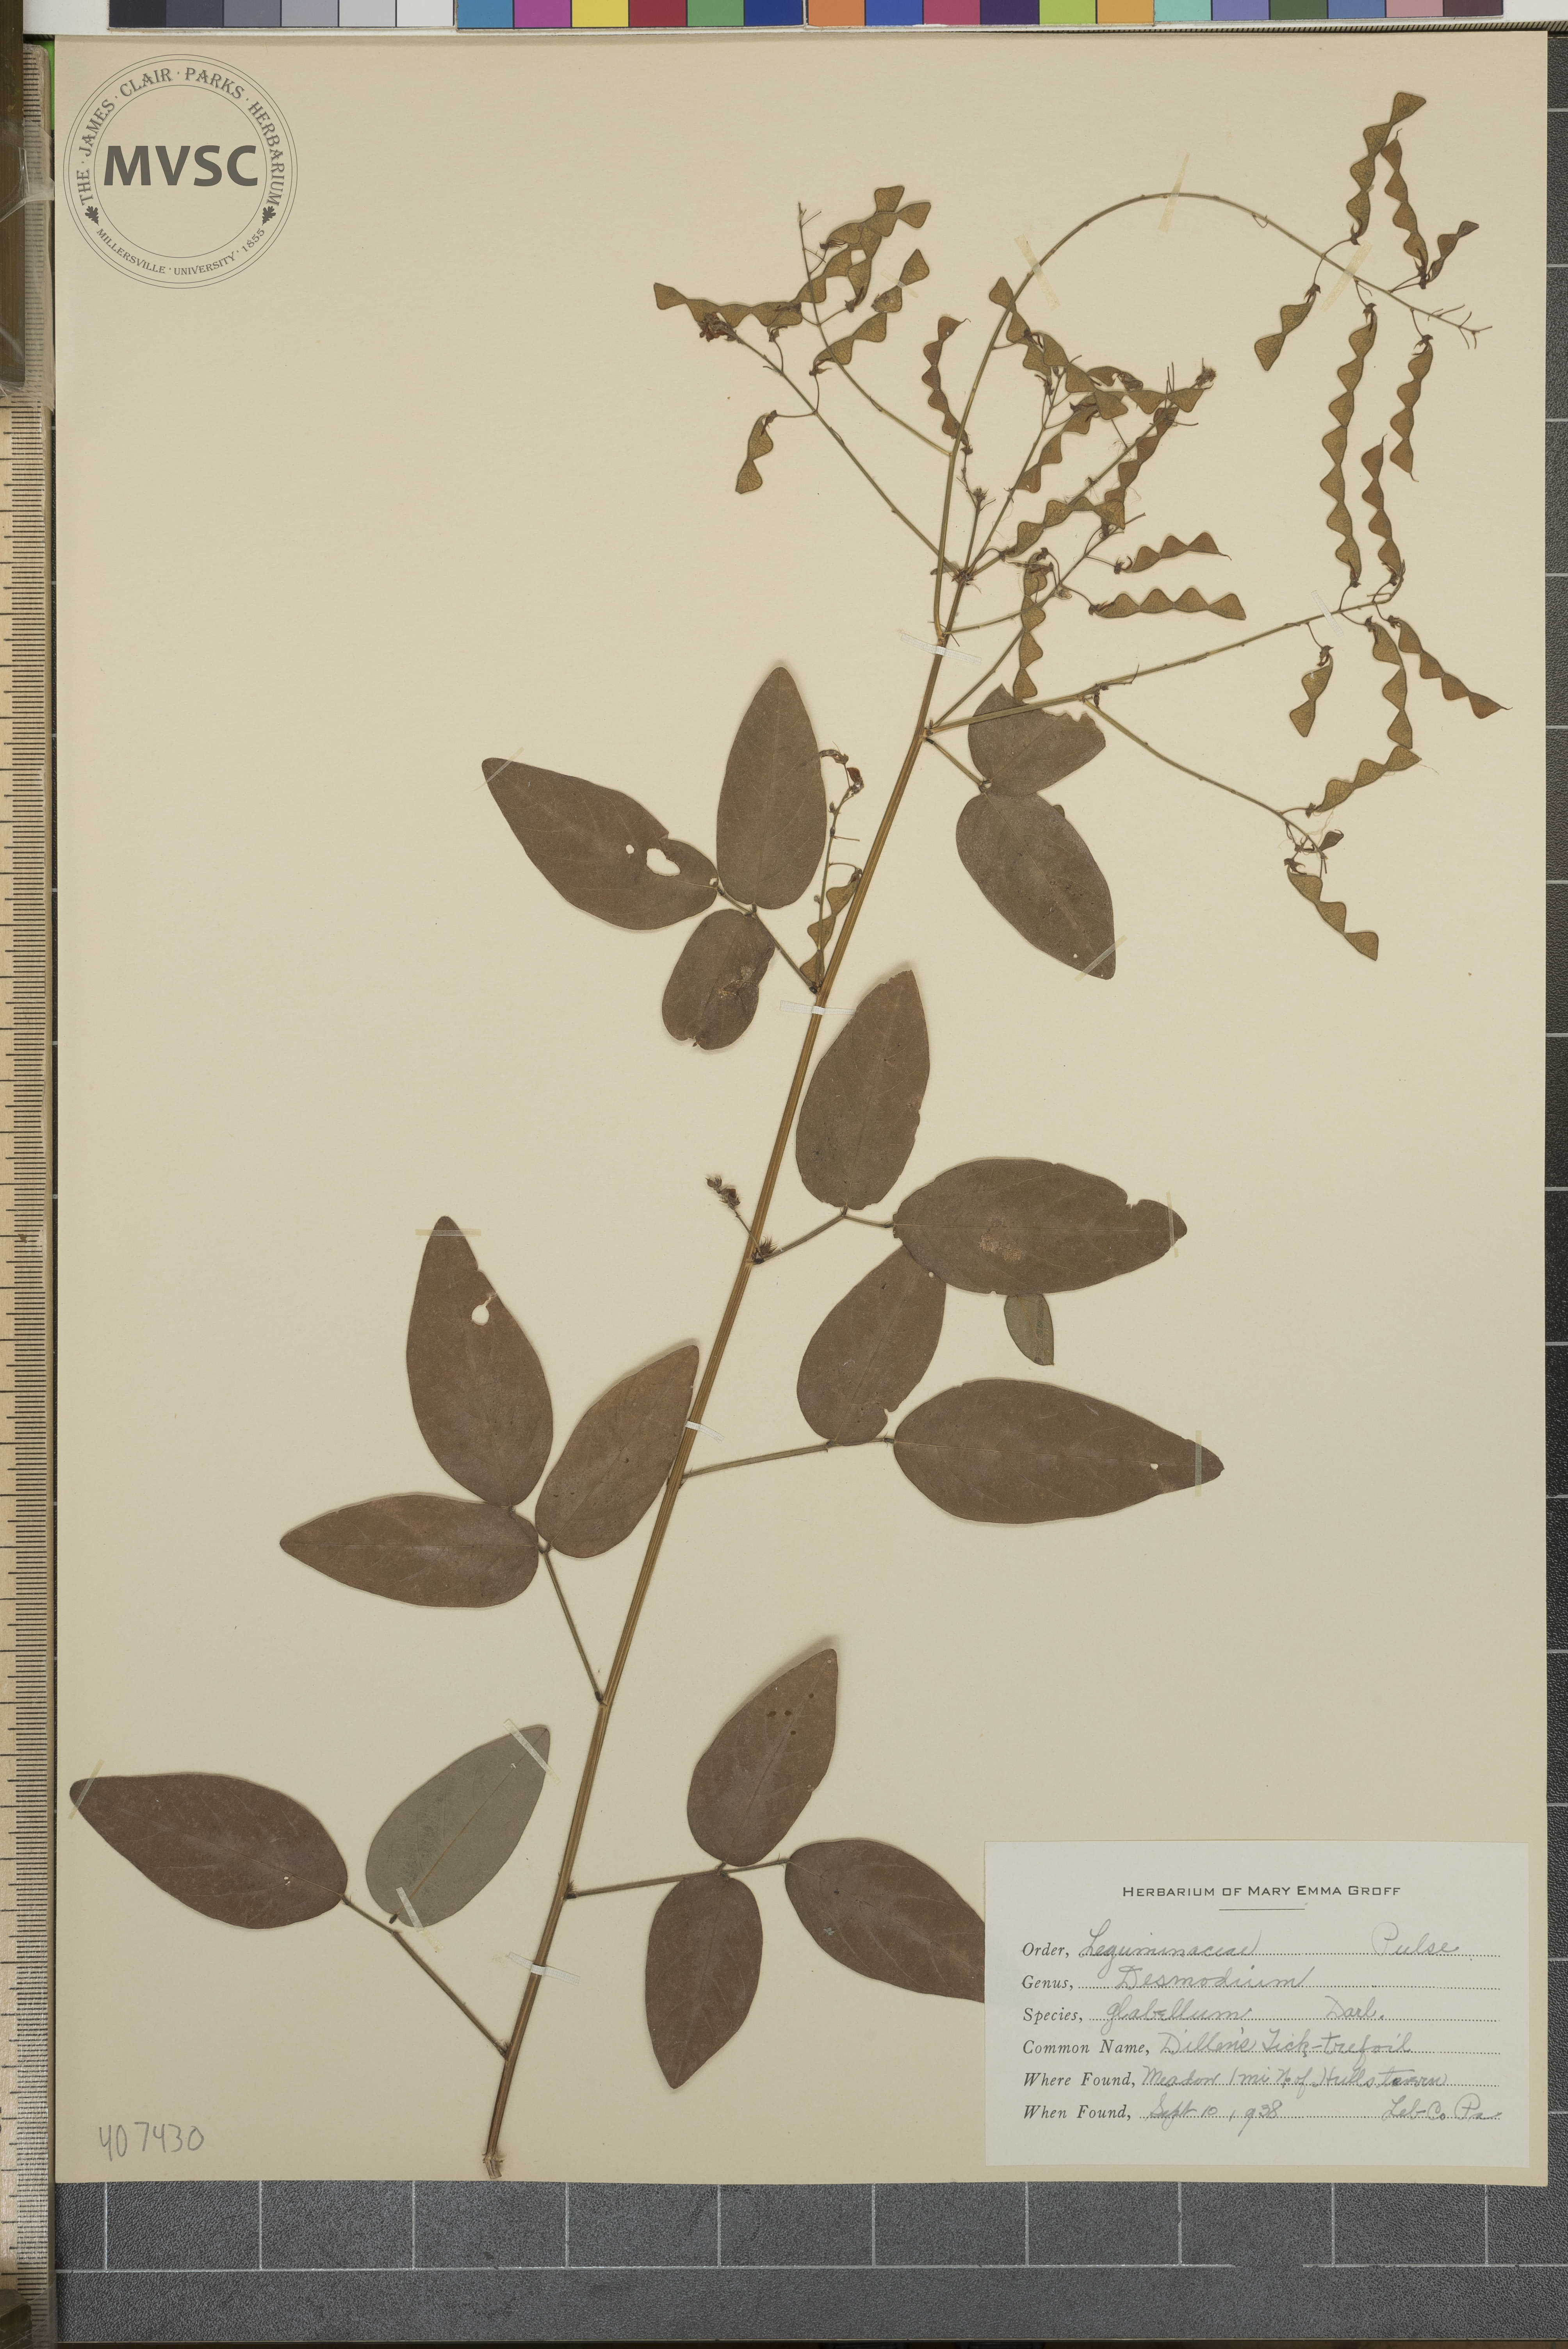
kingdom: Plantae
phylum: Tracheophyta
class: Magnoliopsida
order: Fabales
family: Fabaceae
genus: Desmodium
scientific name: Desmodium glabellum
